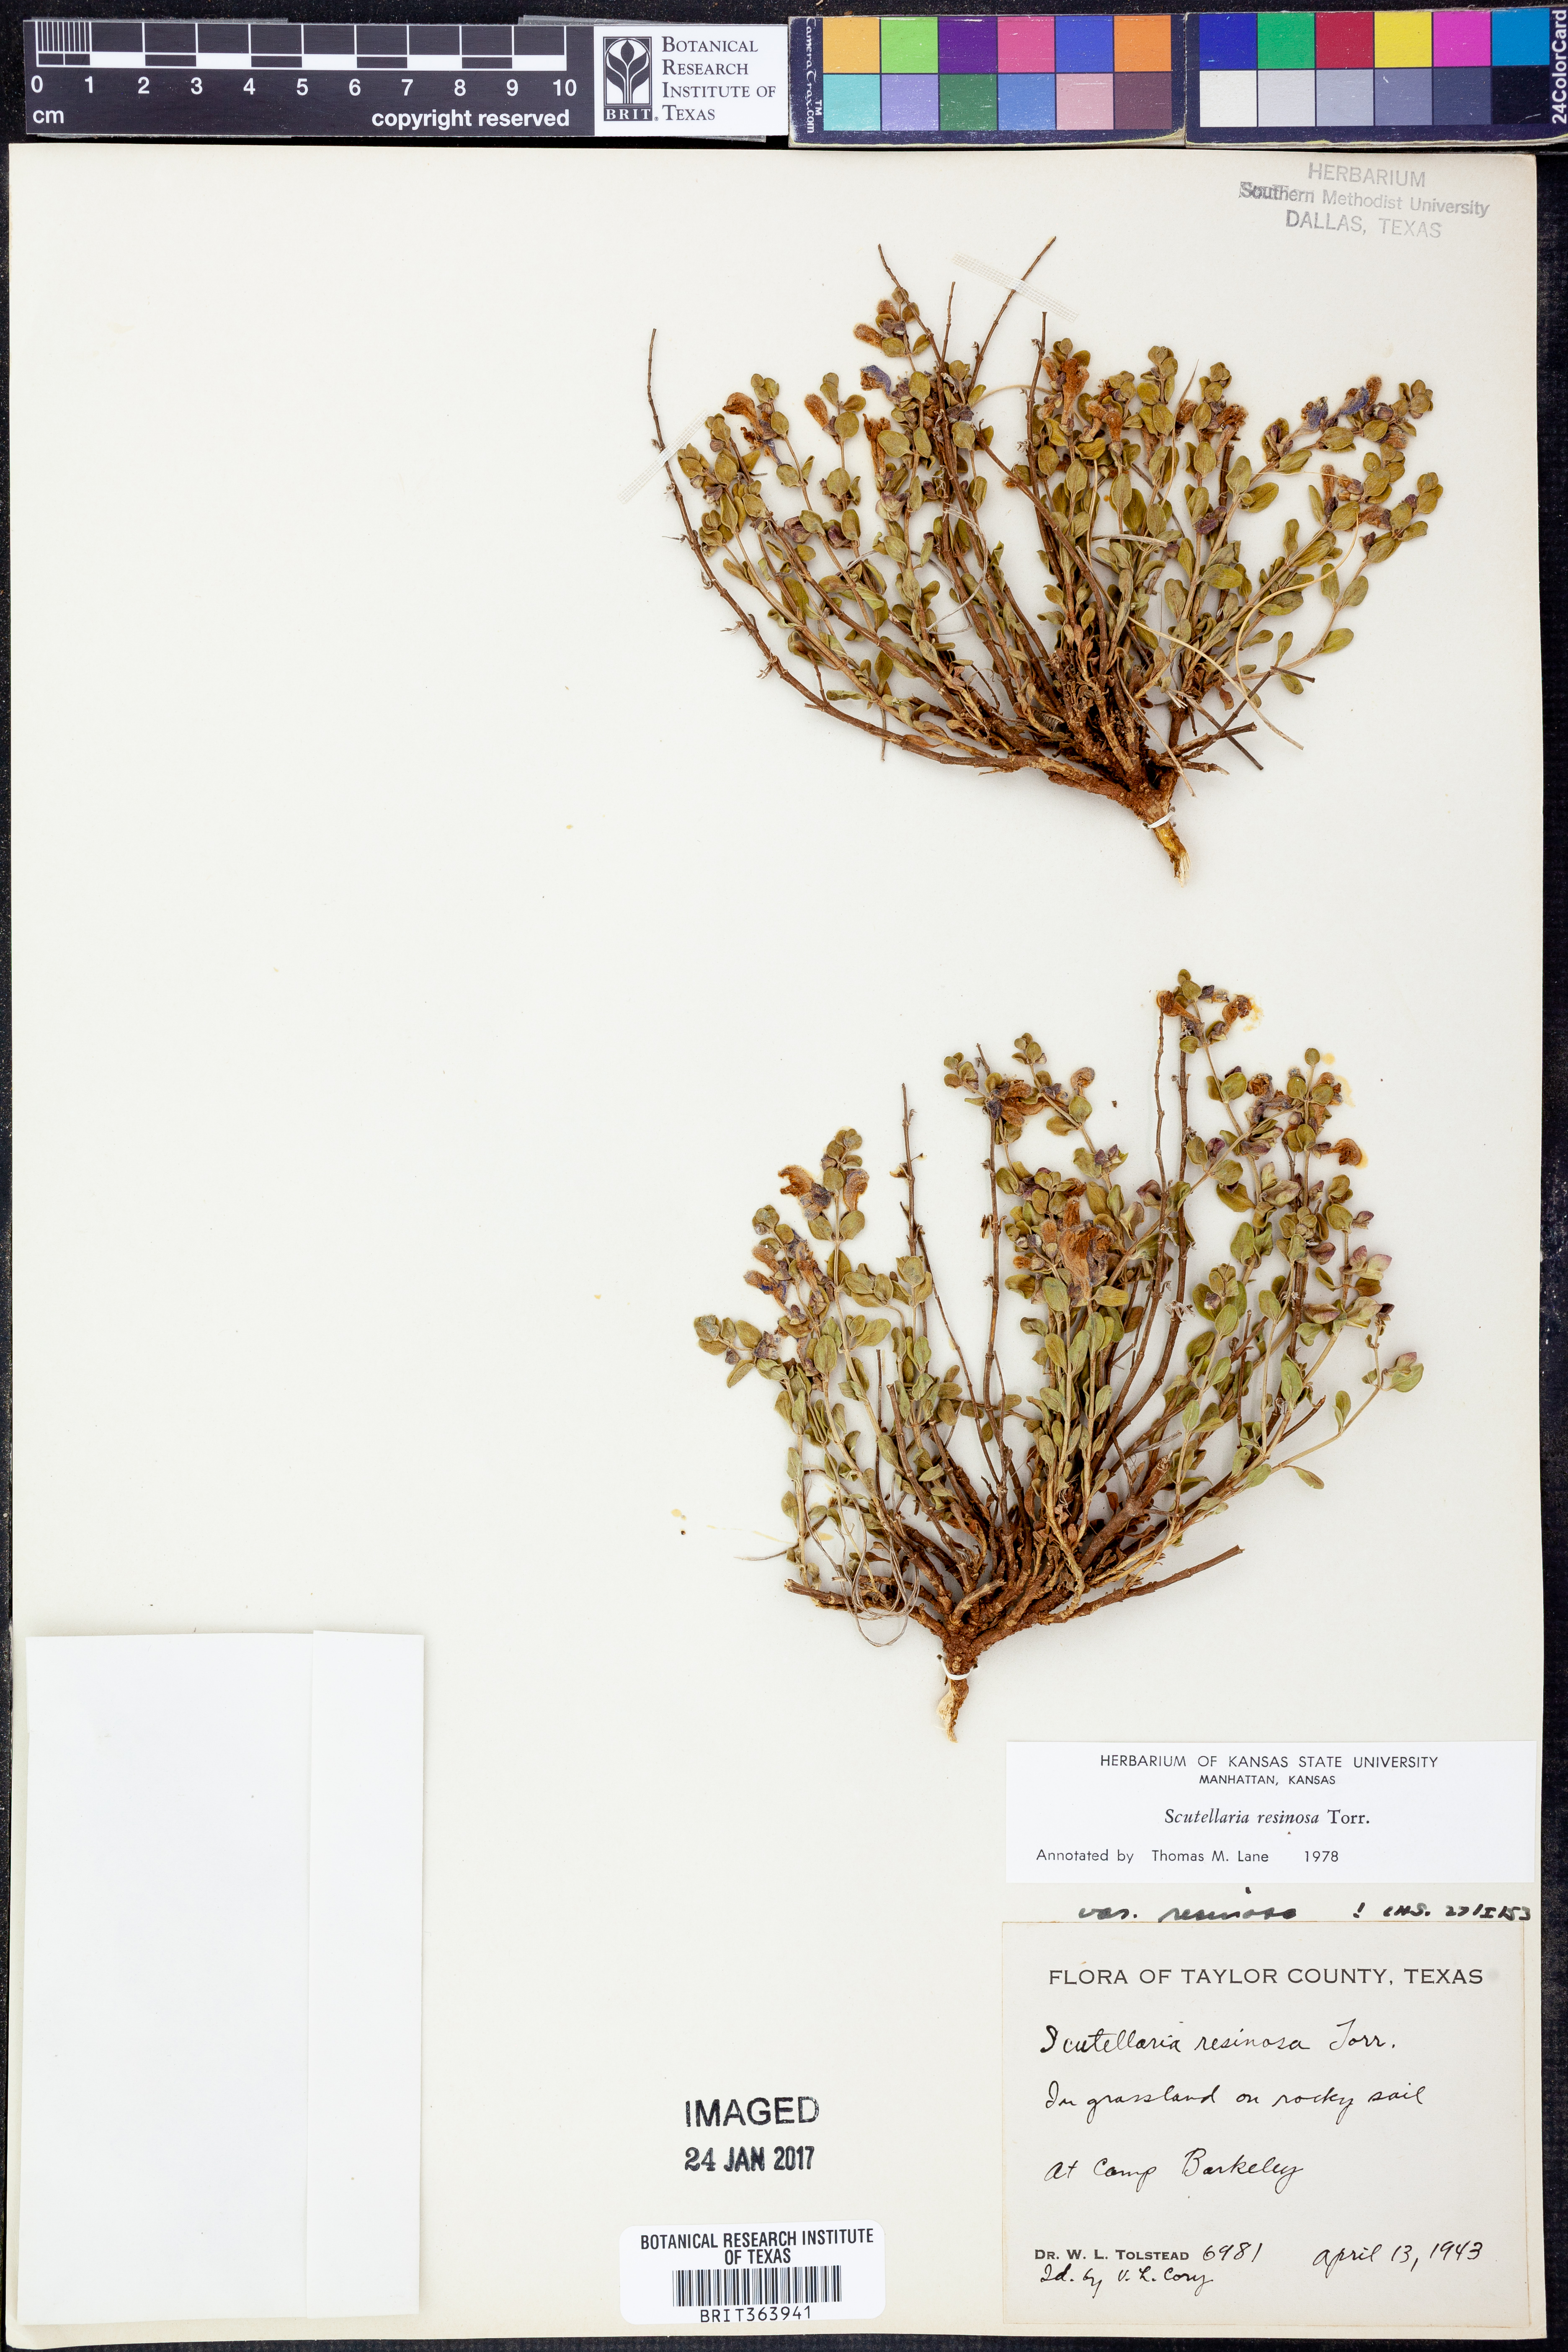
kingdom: Plantae
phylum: Tracheophyta
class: Magnoliopsida
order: Lamiales
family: Lamiaceae
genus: Scutellaria
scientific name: Scutellaria resinosa
